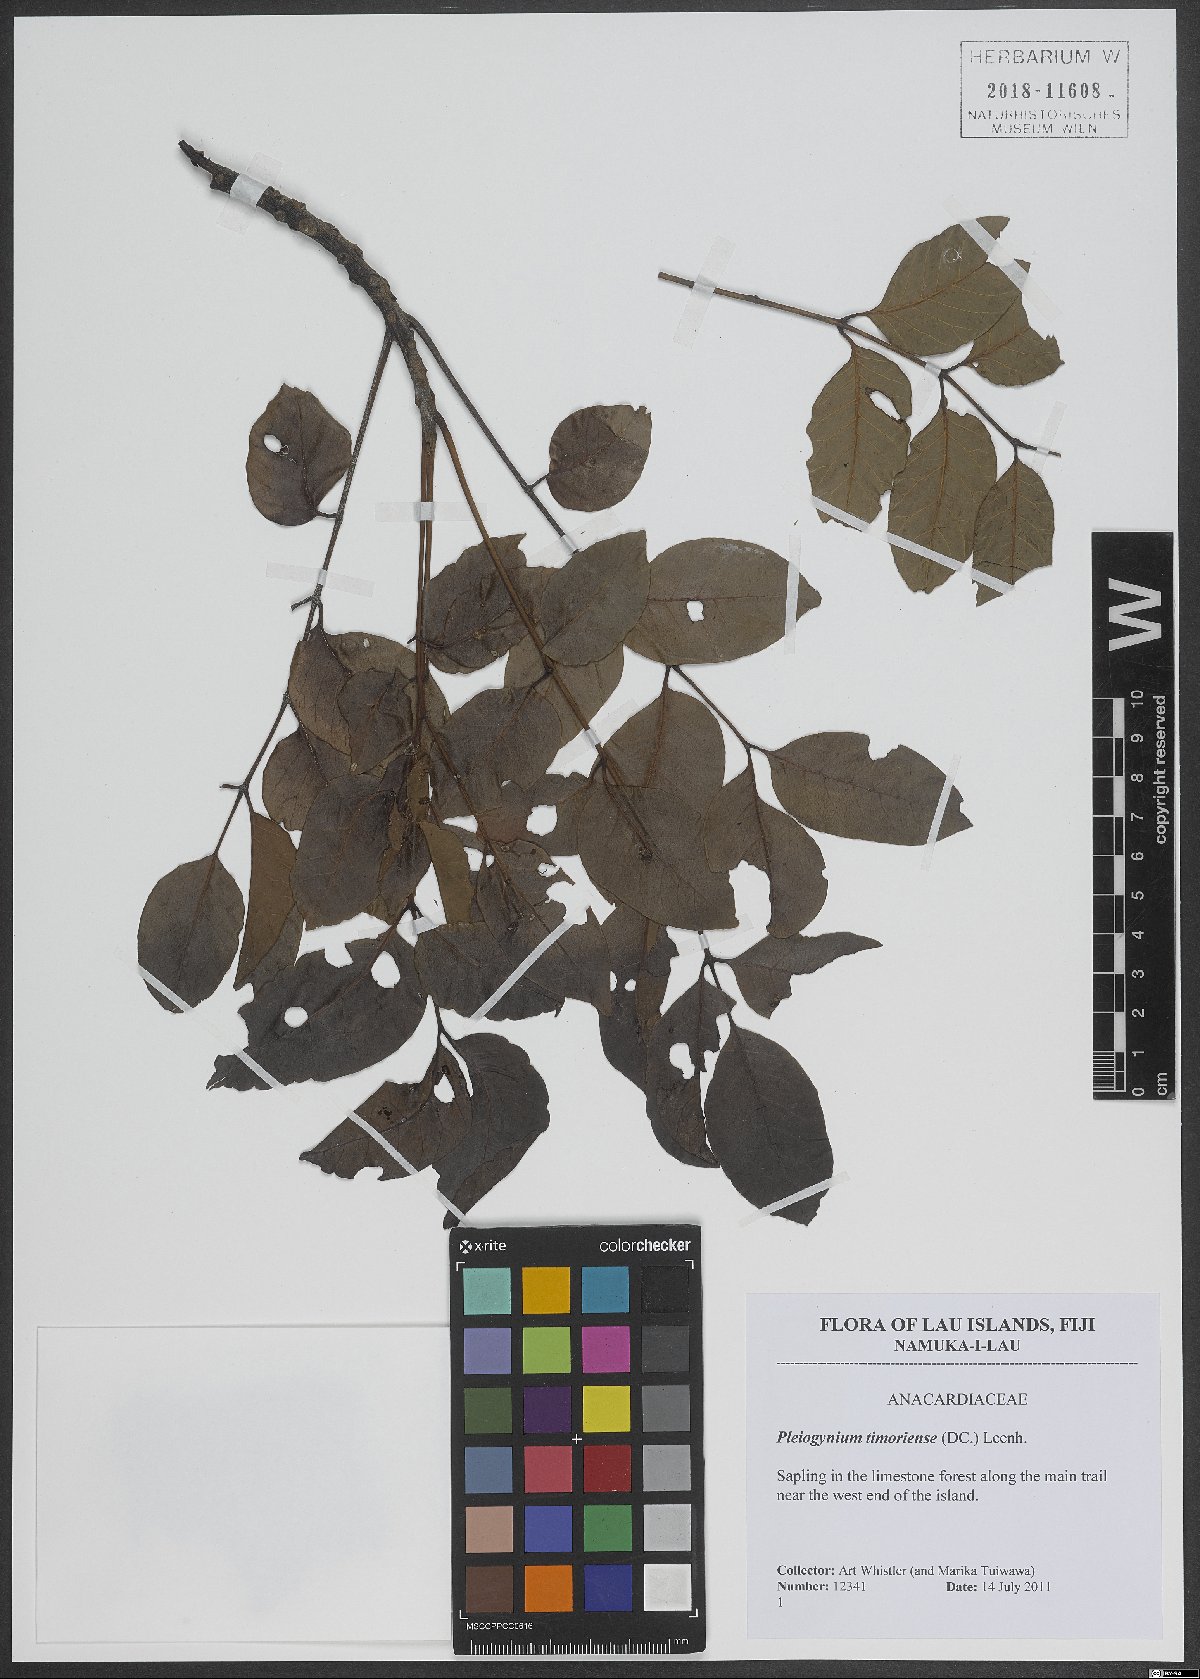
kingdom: Plantae
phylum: Tracheophyta
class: Magnoliopsida
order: Sapindales
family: Anacardiaceae
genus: Pleiogynium
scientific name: Pleiogynium timoriense
